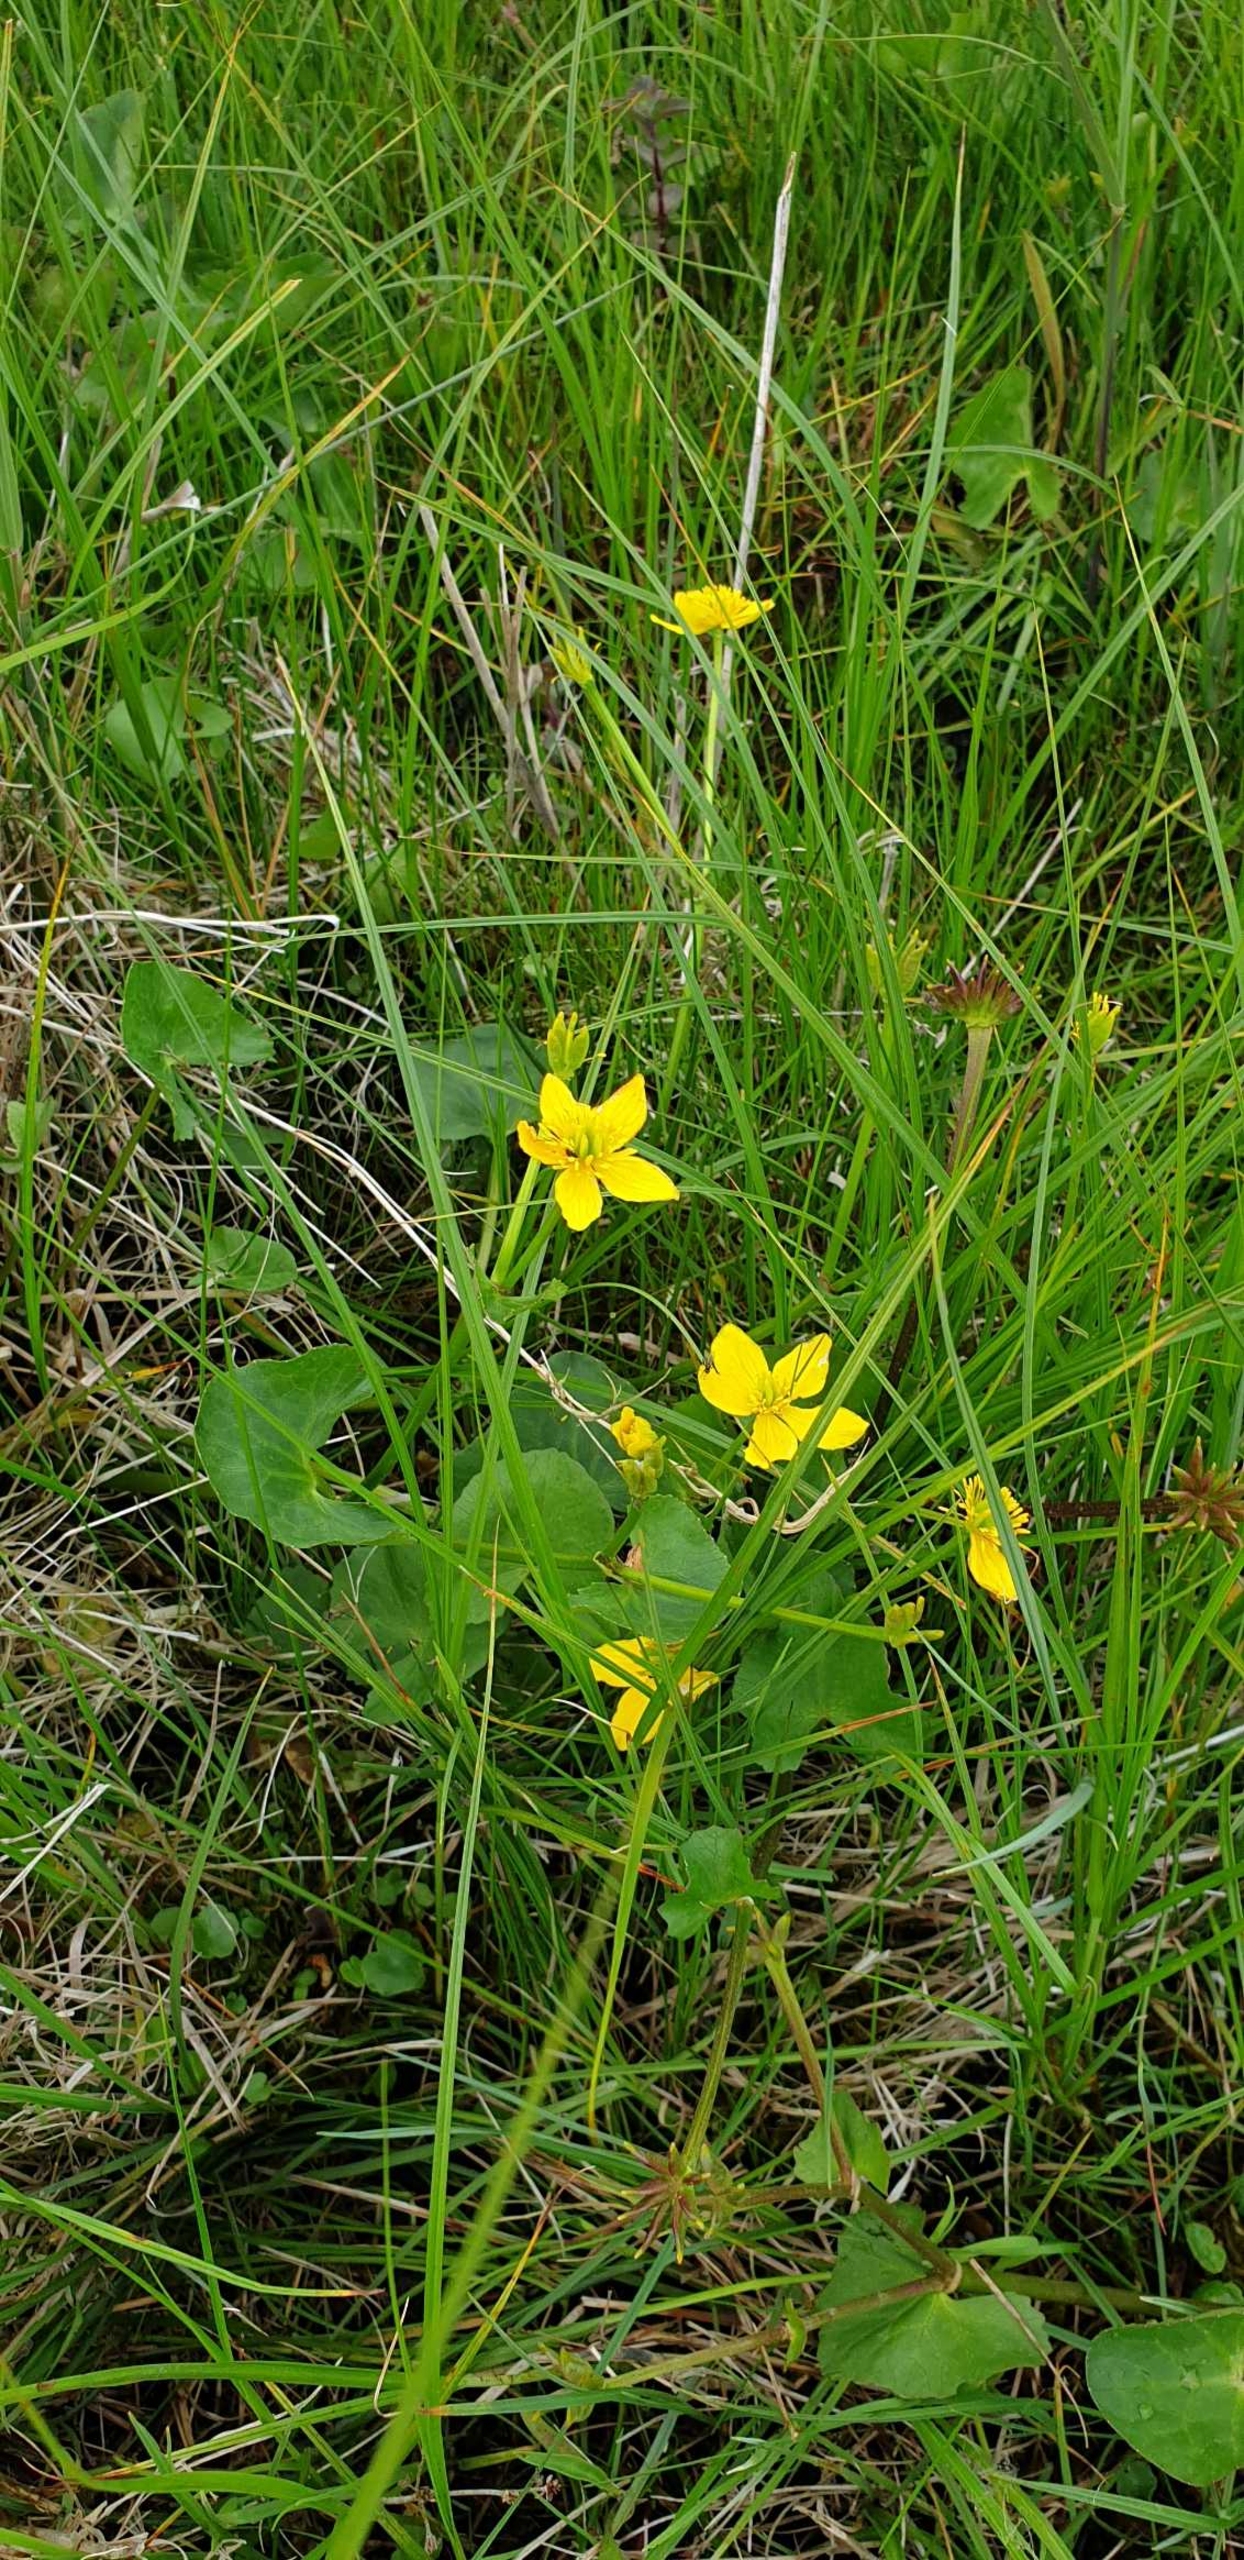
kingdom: Plantae
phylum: Tracheophyta
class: Magnoliopsida
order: Ranunculales
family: Ranunculaceae
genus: Caltha
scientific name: Caltha palustris
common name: Eng-kabbeleje
